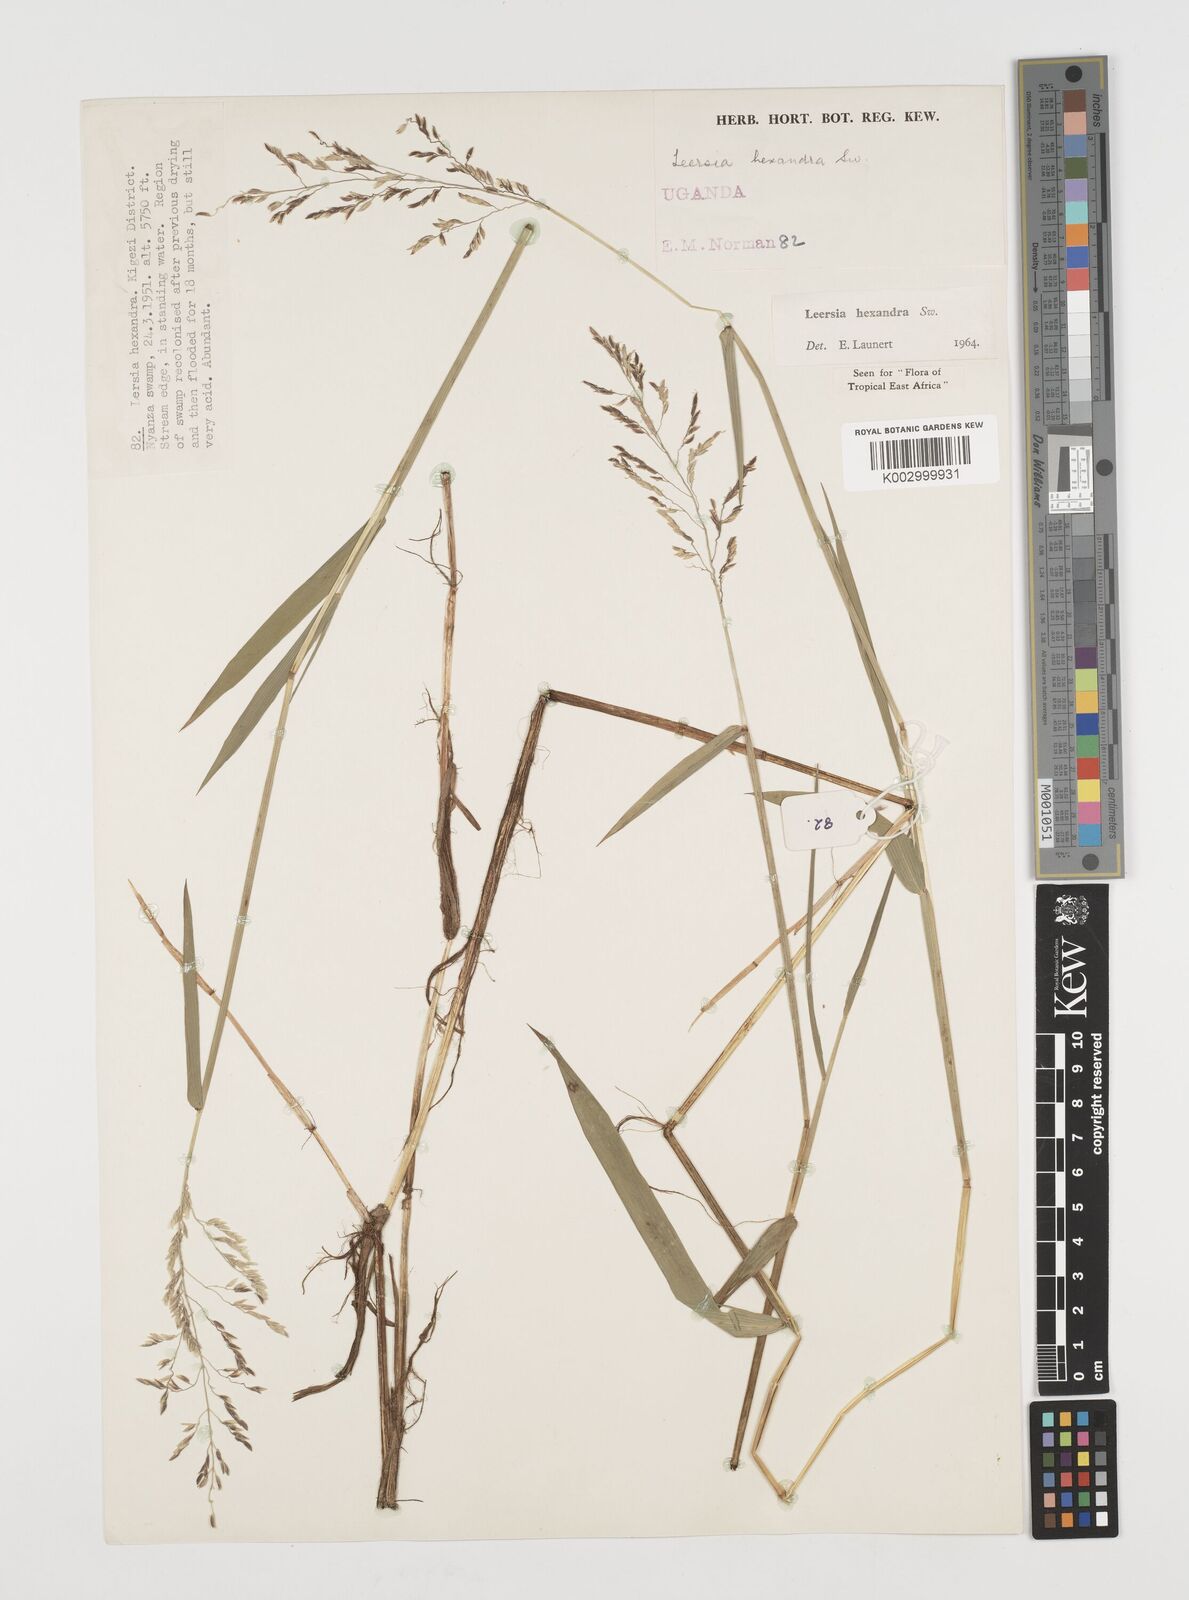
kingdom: Plantae
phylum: Tracheophyta
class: Liliopsida
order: Poales
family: Poaceae
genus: Leersia
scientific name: Leersia hexandra
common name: Southern cut grass
